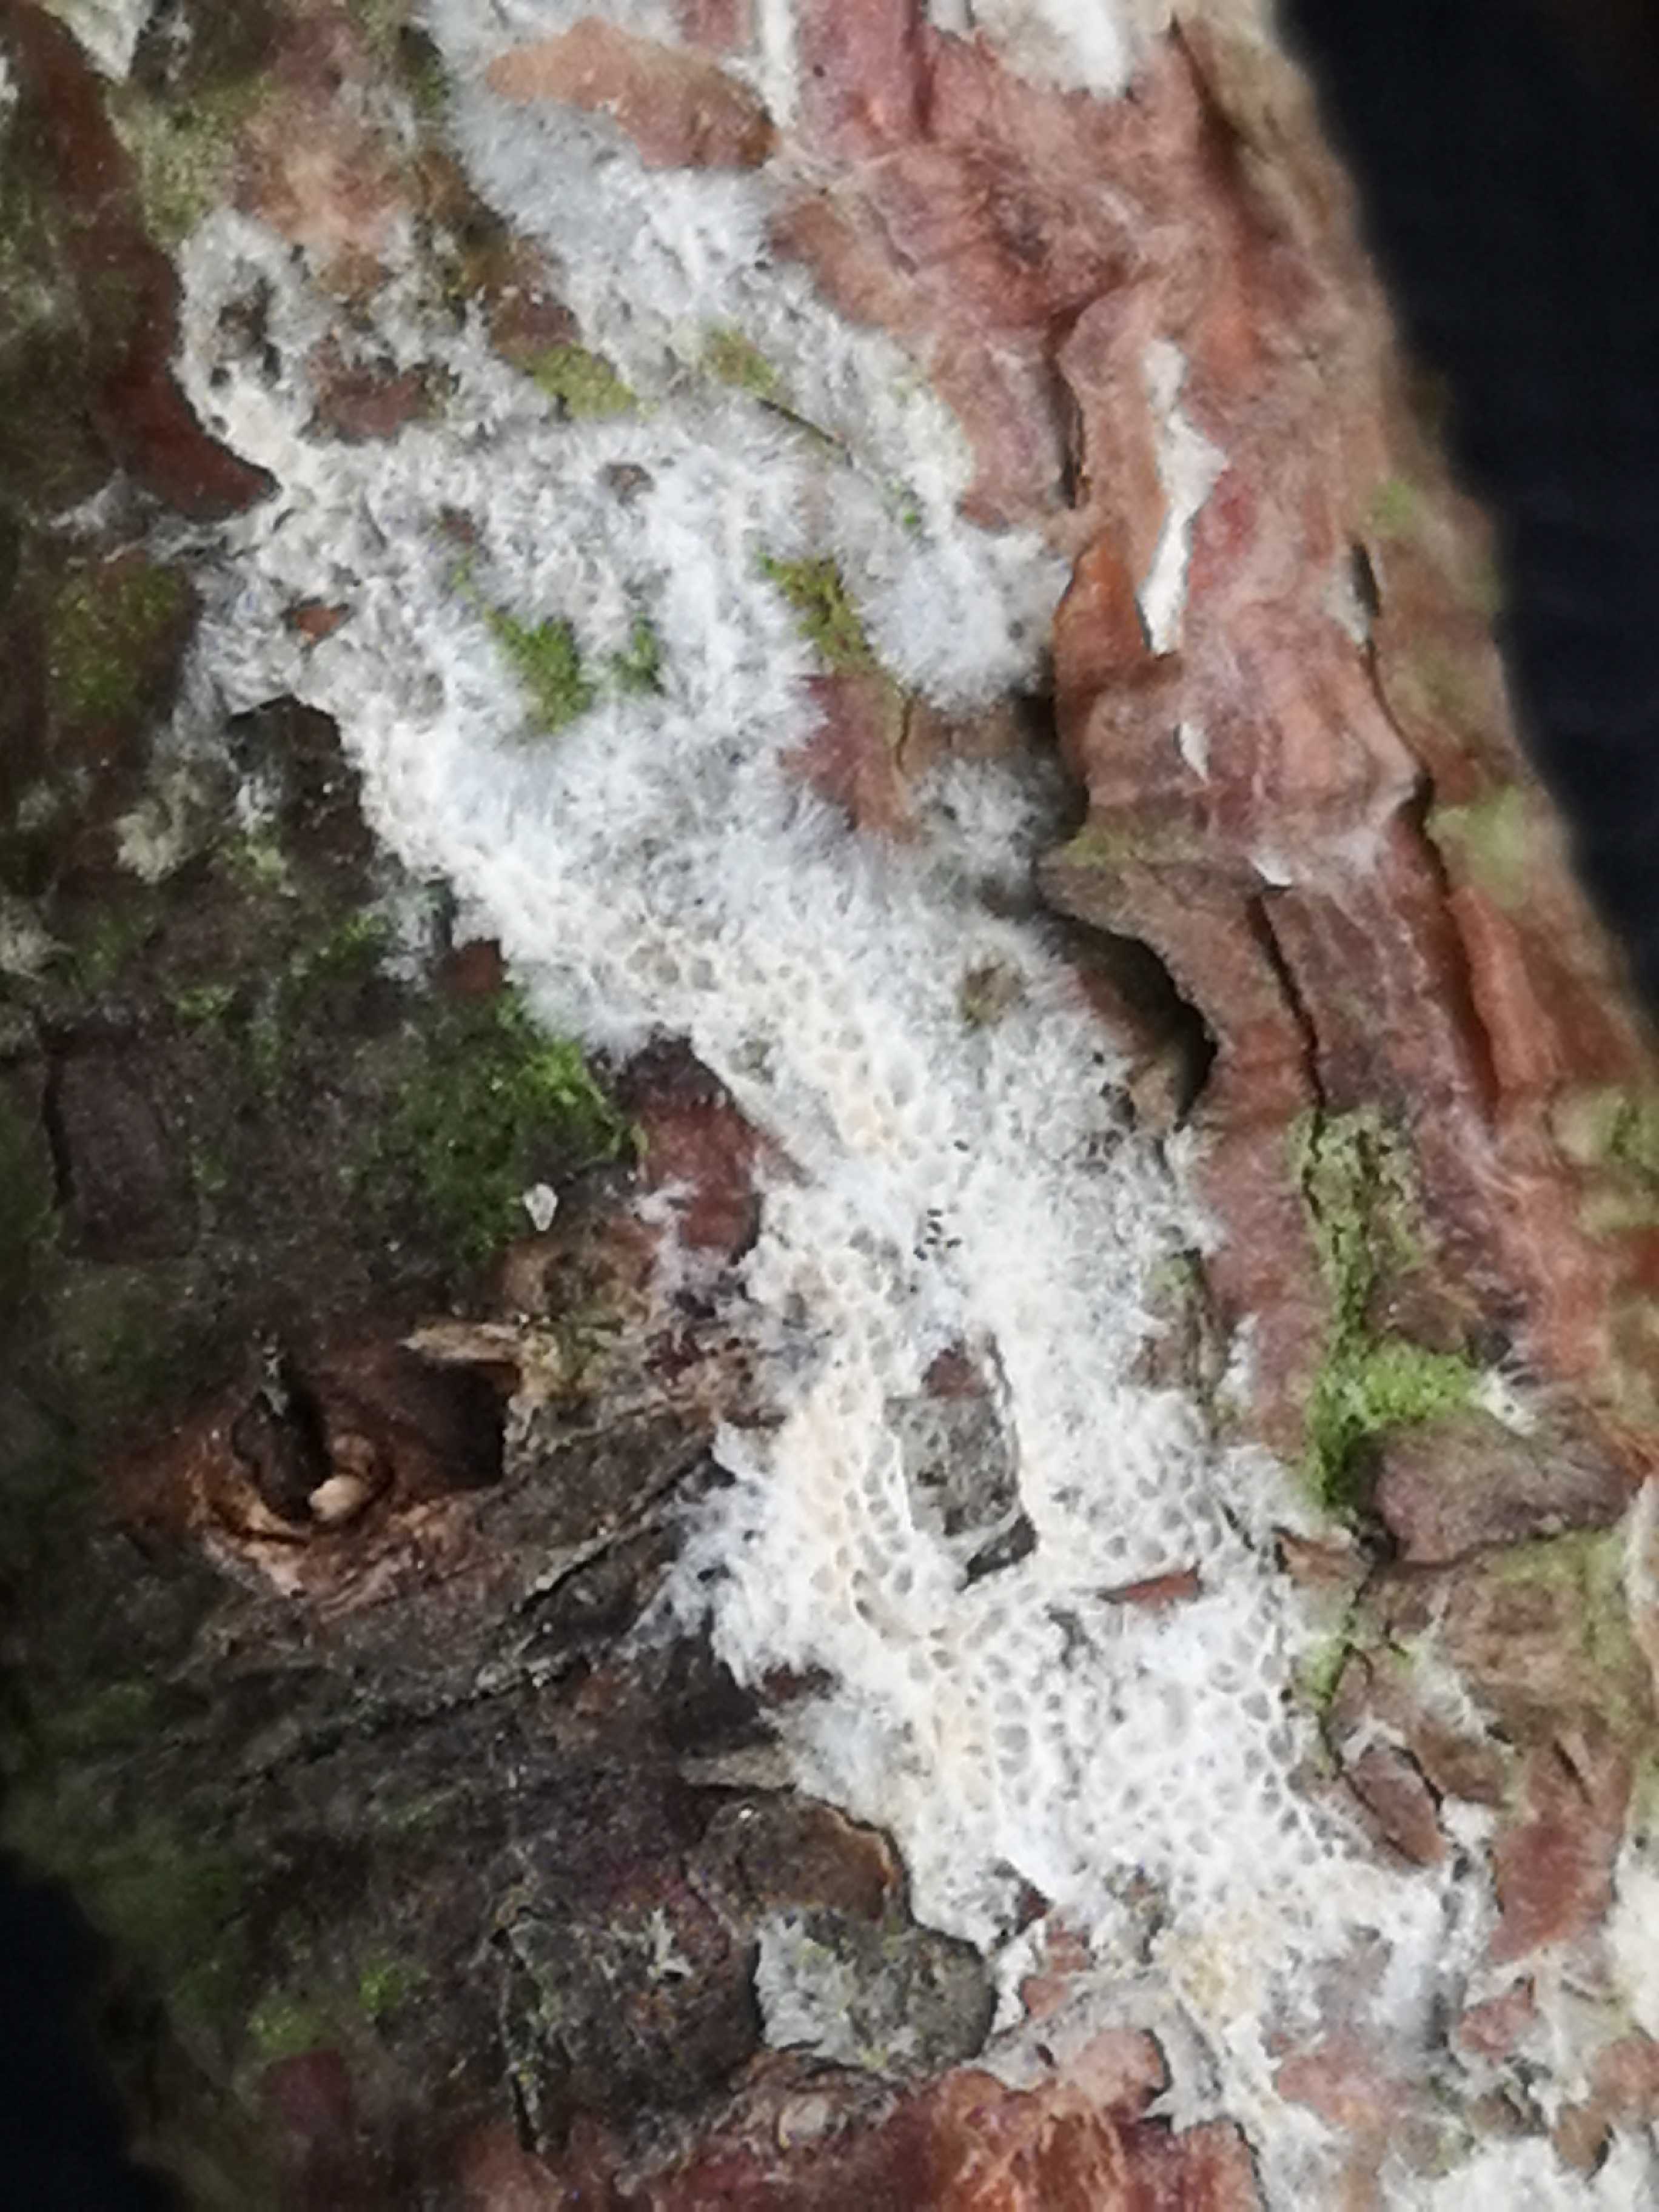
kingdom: Fungi
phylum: Basidiomycota
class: Agaricomycetes
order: Polyporales
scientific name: Polyporales
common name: poresvampordenen
